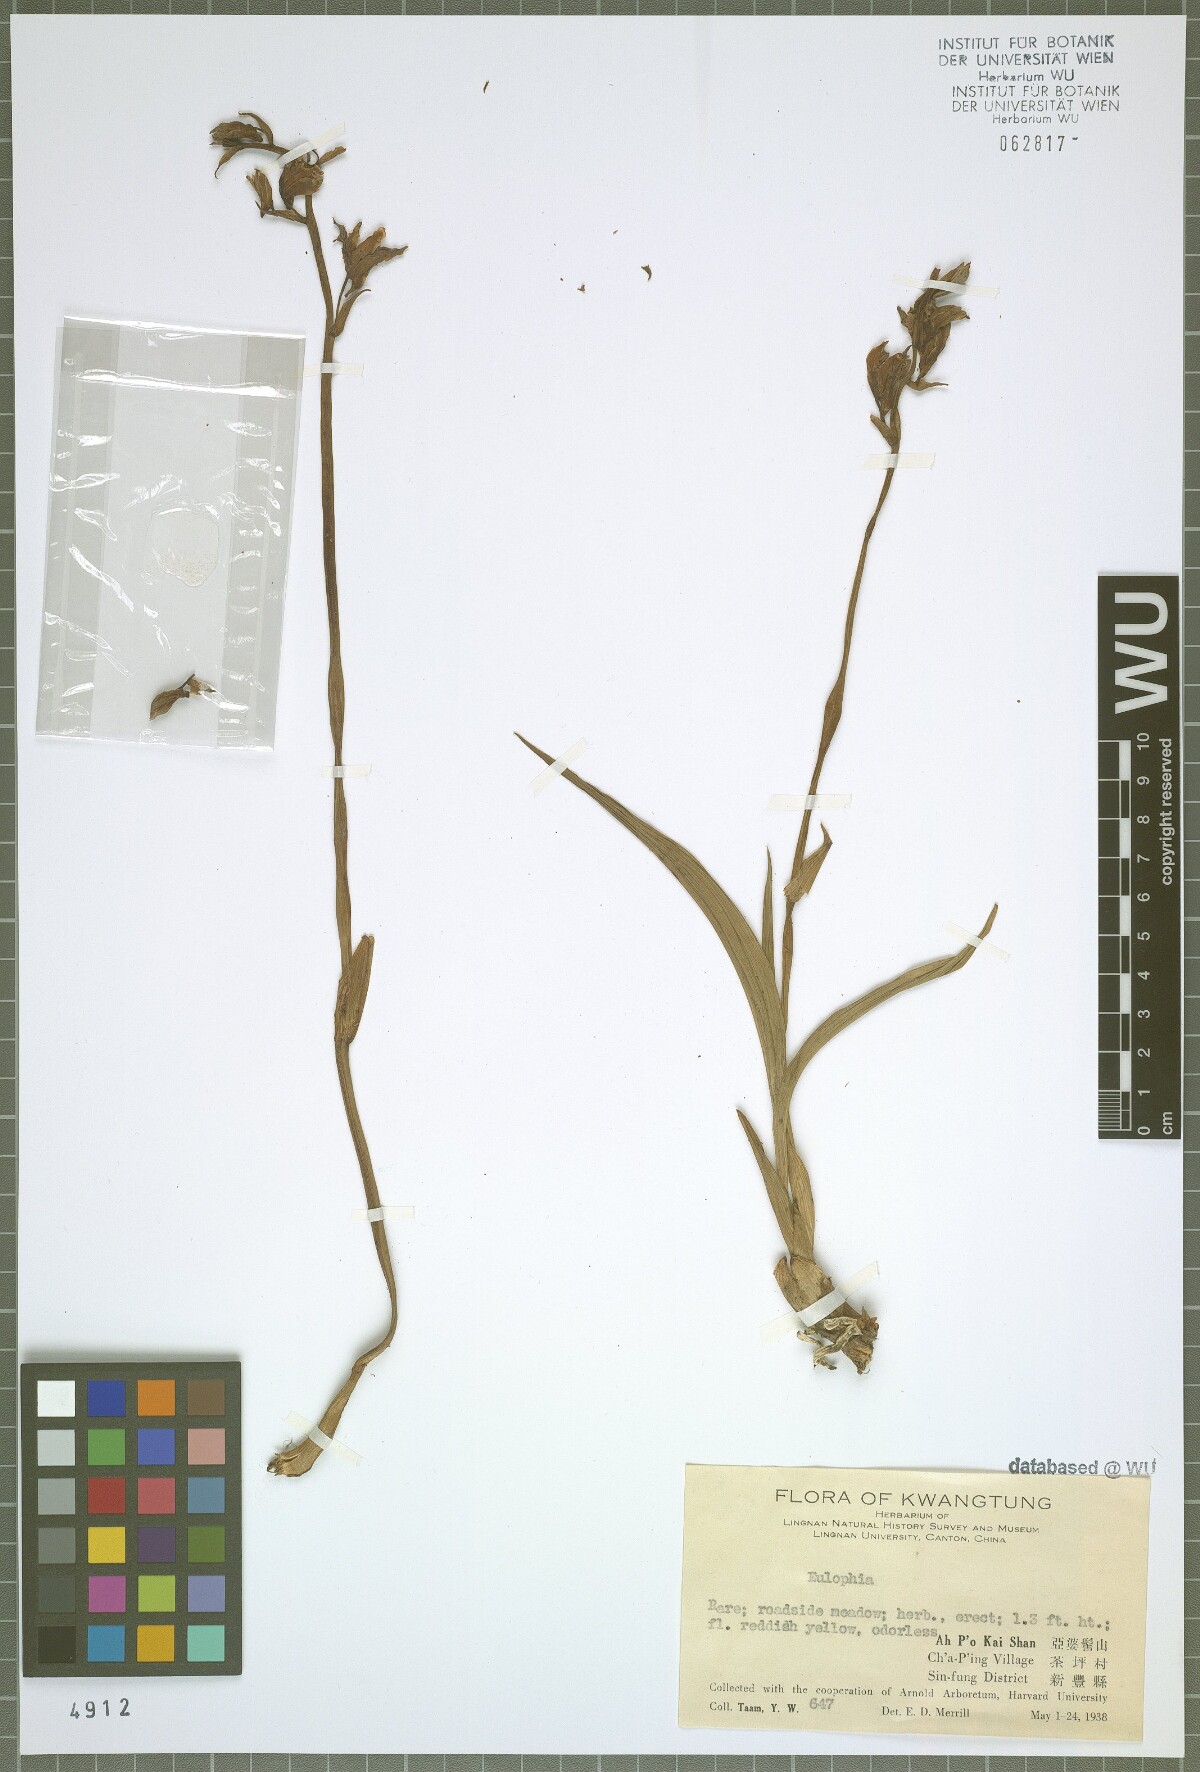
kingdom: Plantae
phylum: Tracheophyta
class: Liliopsida
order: Asparagales
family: Orchidaceae
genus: Eulophia
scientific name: Eulophia
